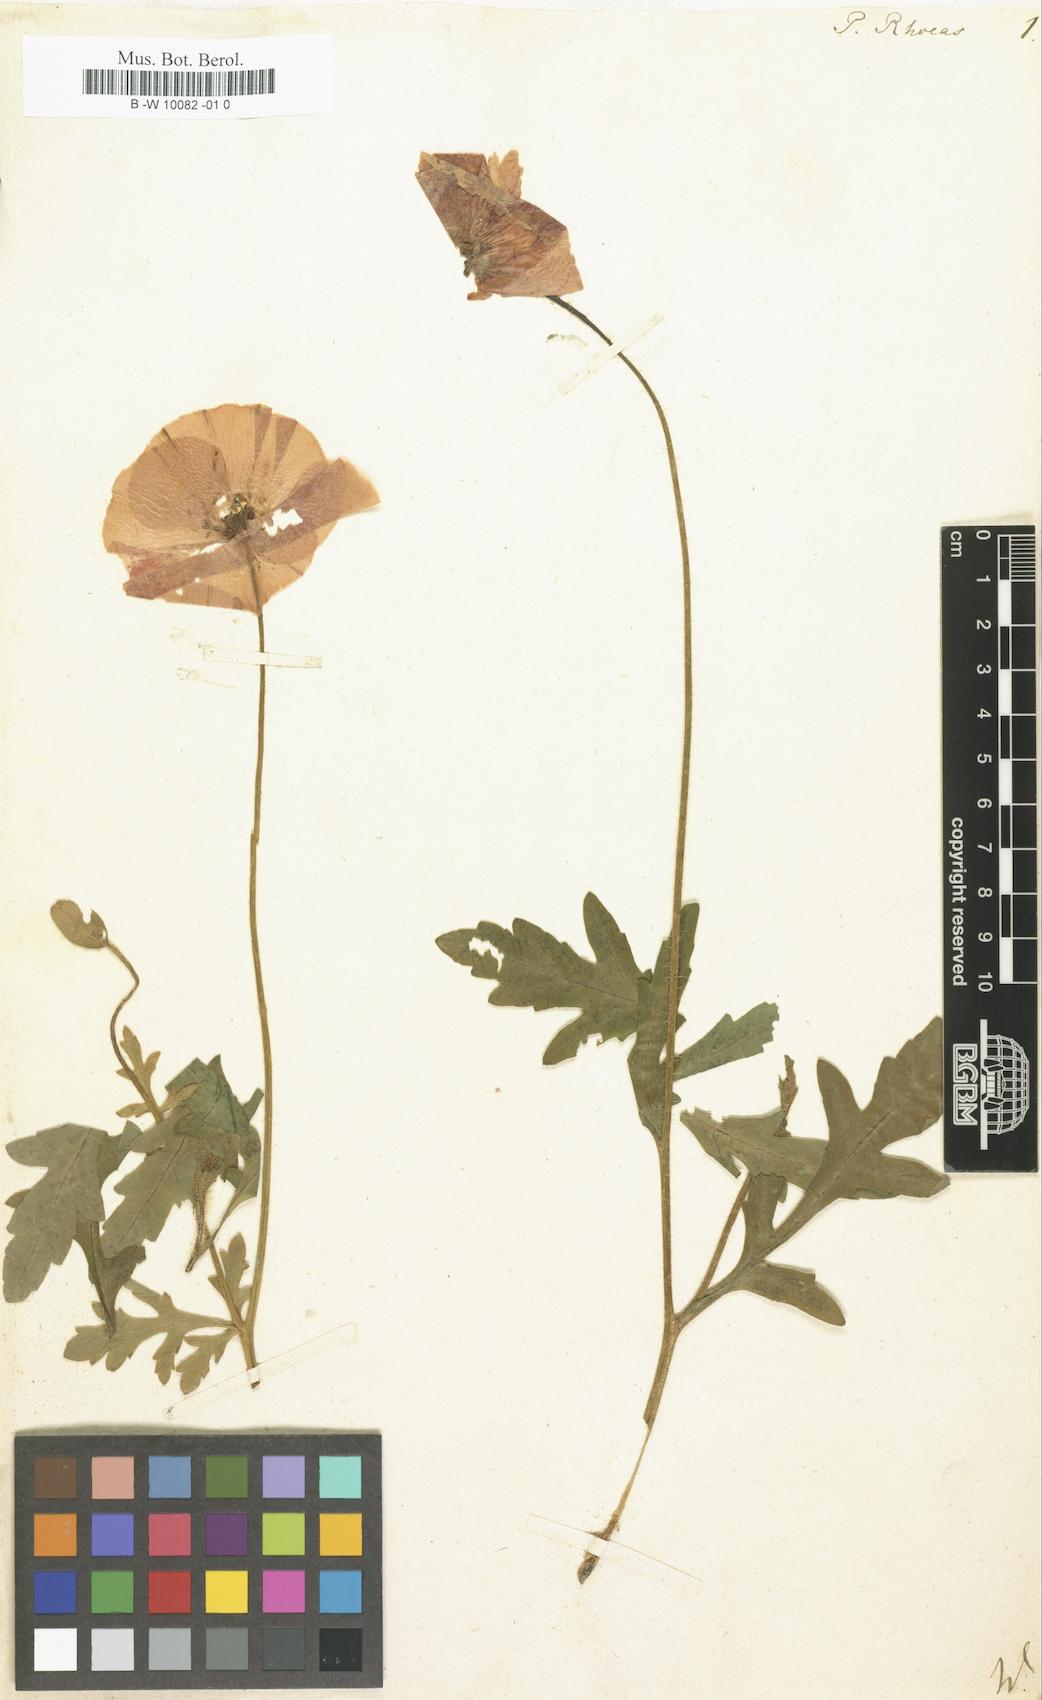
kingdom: Plantae
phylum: Tracheophyta
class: Magnoliopsida
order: Ranunculales
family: Papaveraceae
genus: Papaver
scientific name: Papaver rhoeas
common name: Corn poppy
